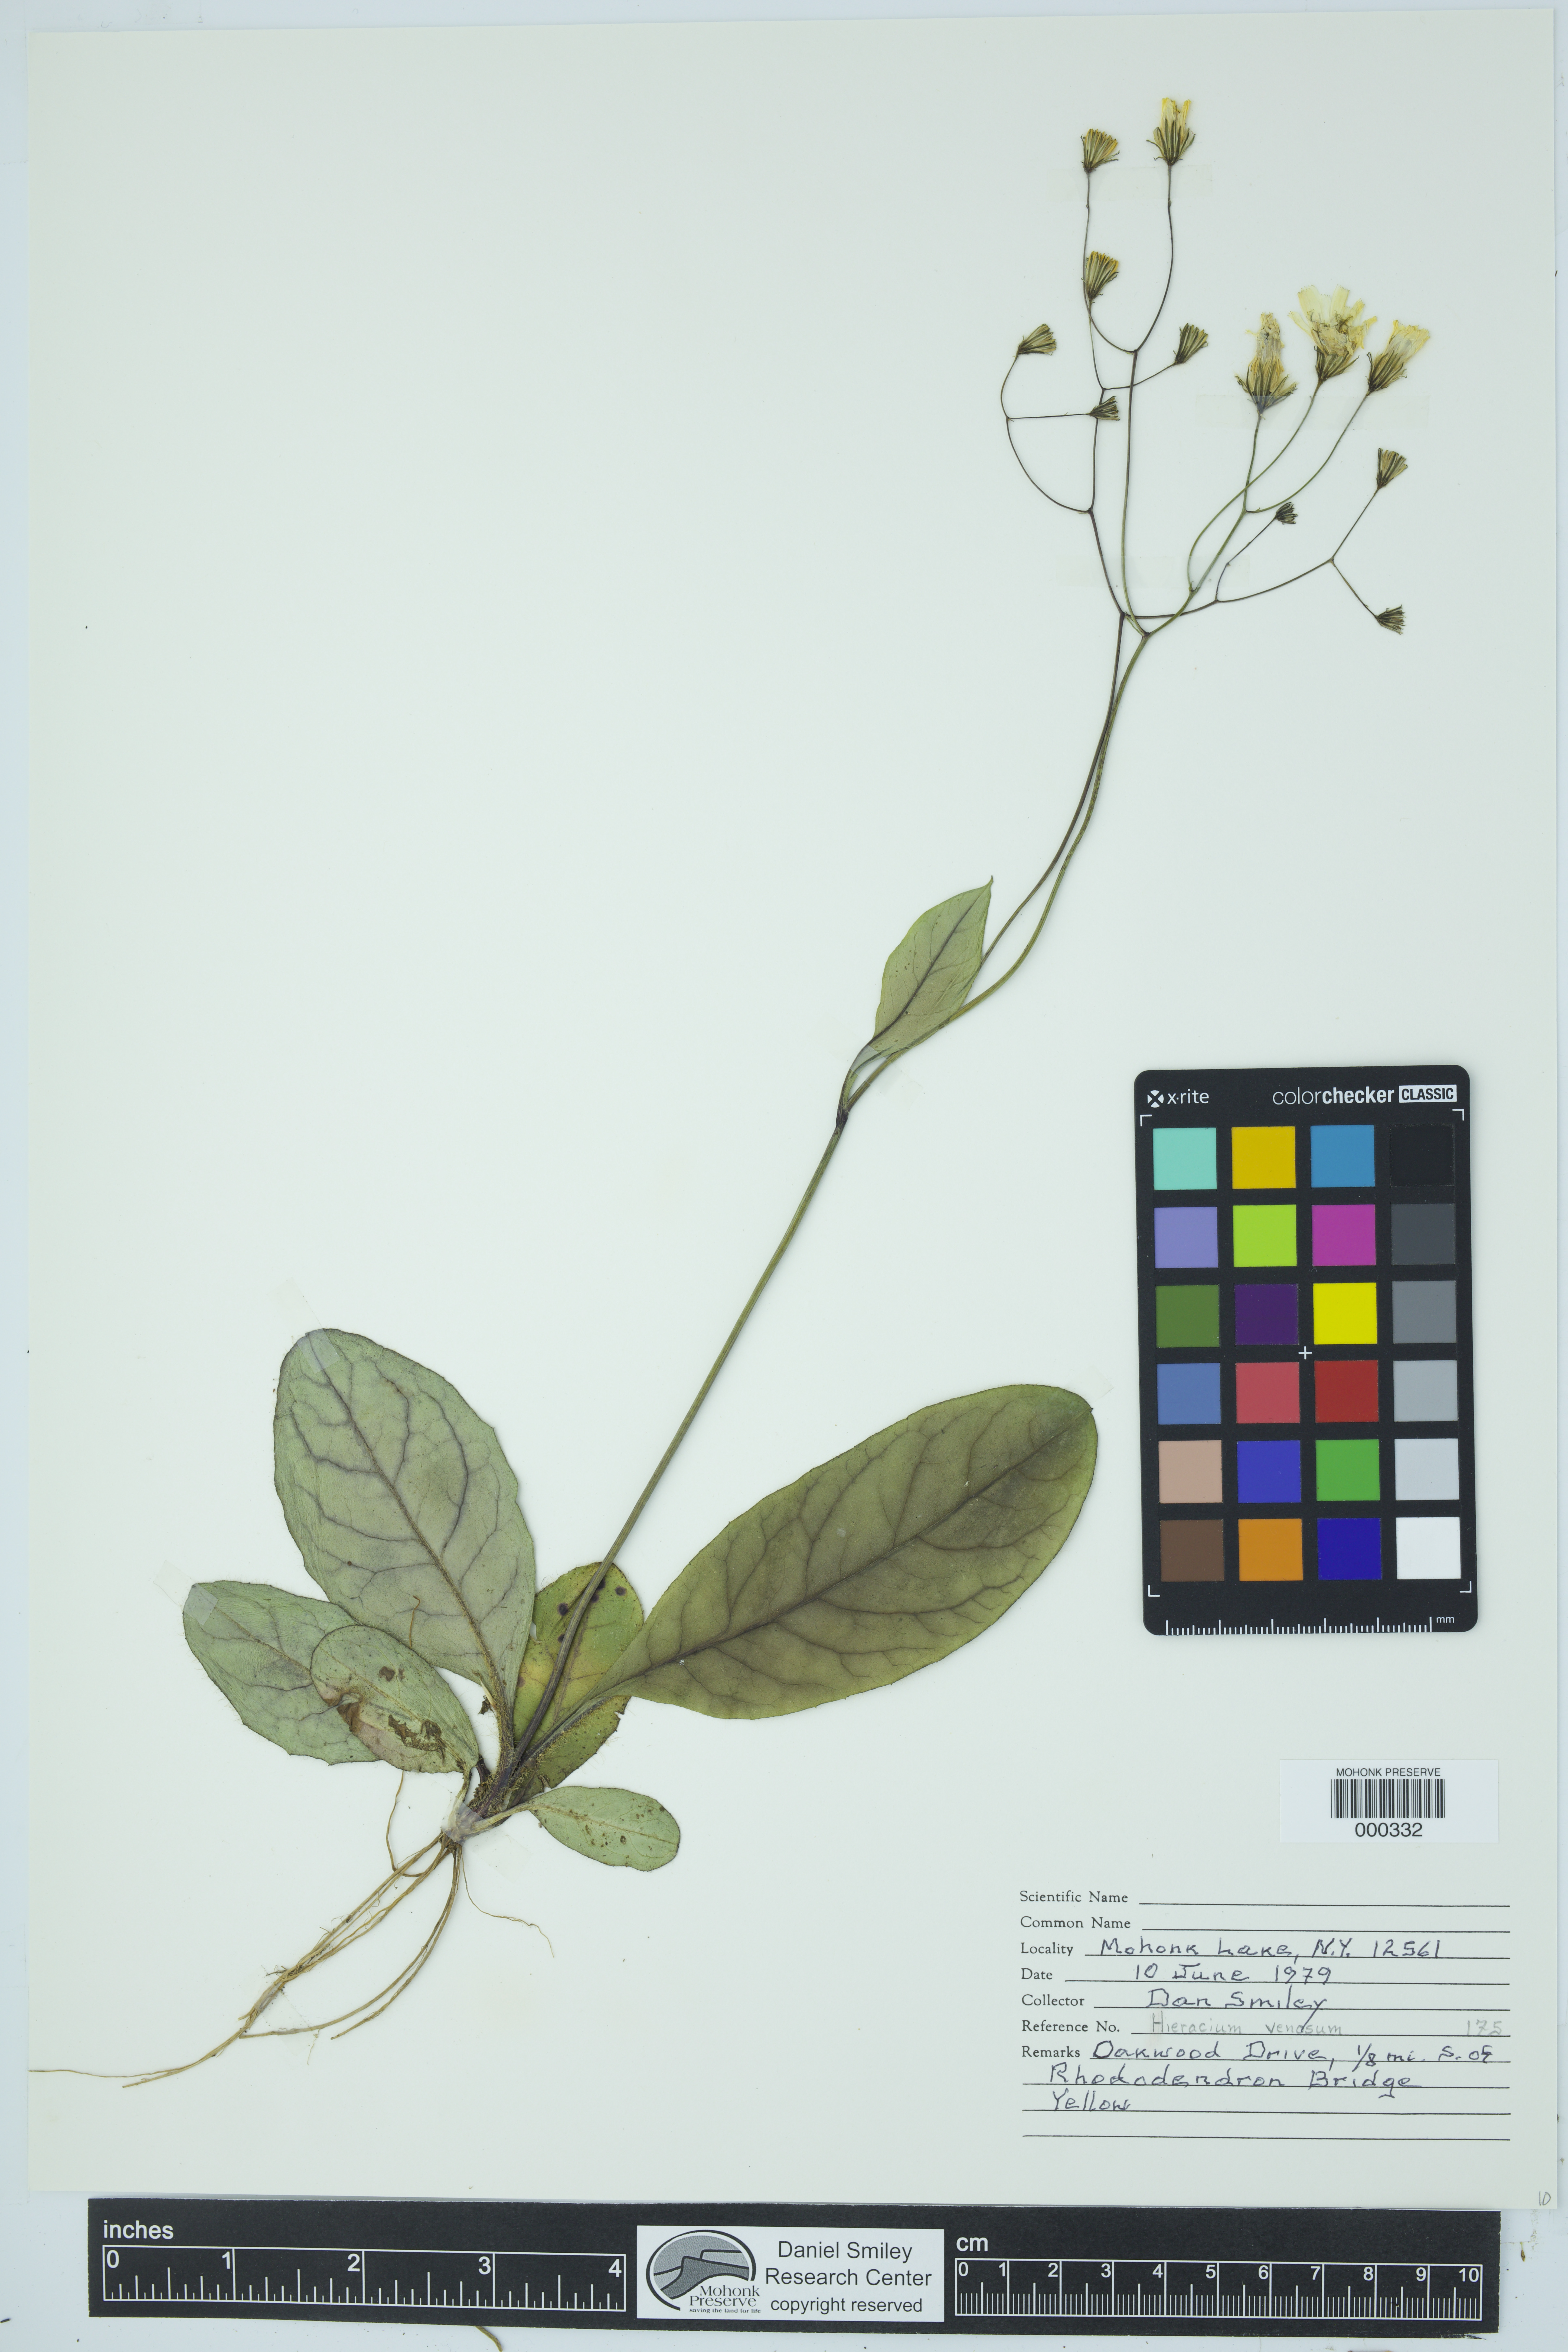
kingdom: Plantae
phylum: Tracheophyta
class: Magnoliopsida
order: Asterales
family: Asteraceae
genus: Hieracium
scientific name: Hieracium venosum
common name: Rattlesnake hawkweed
